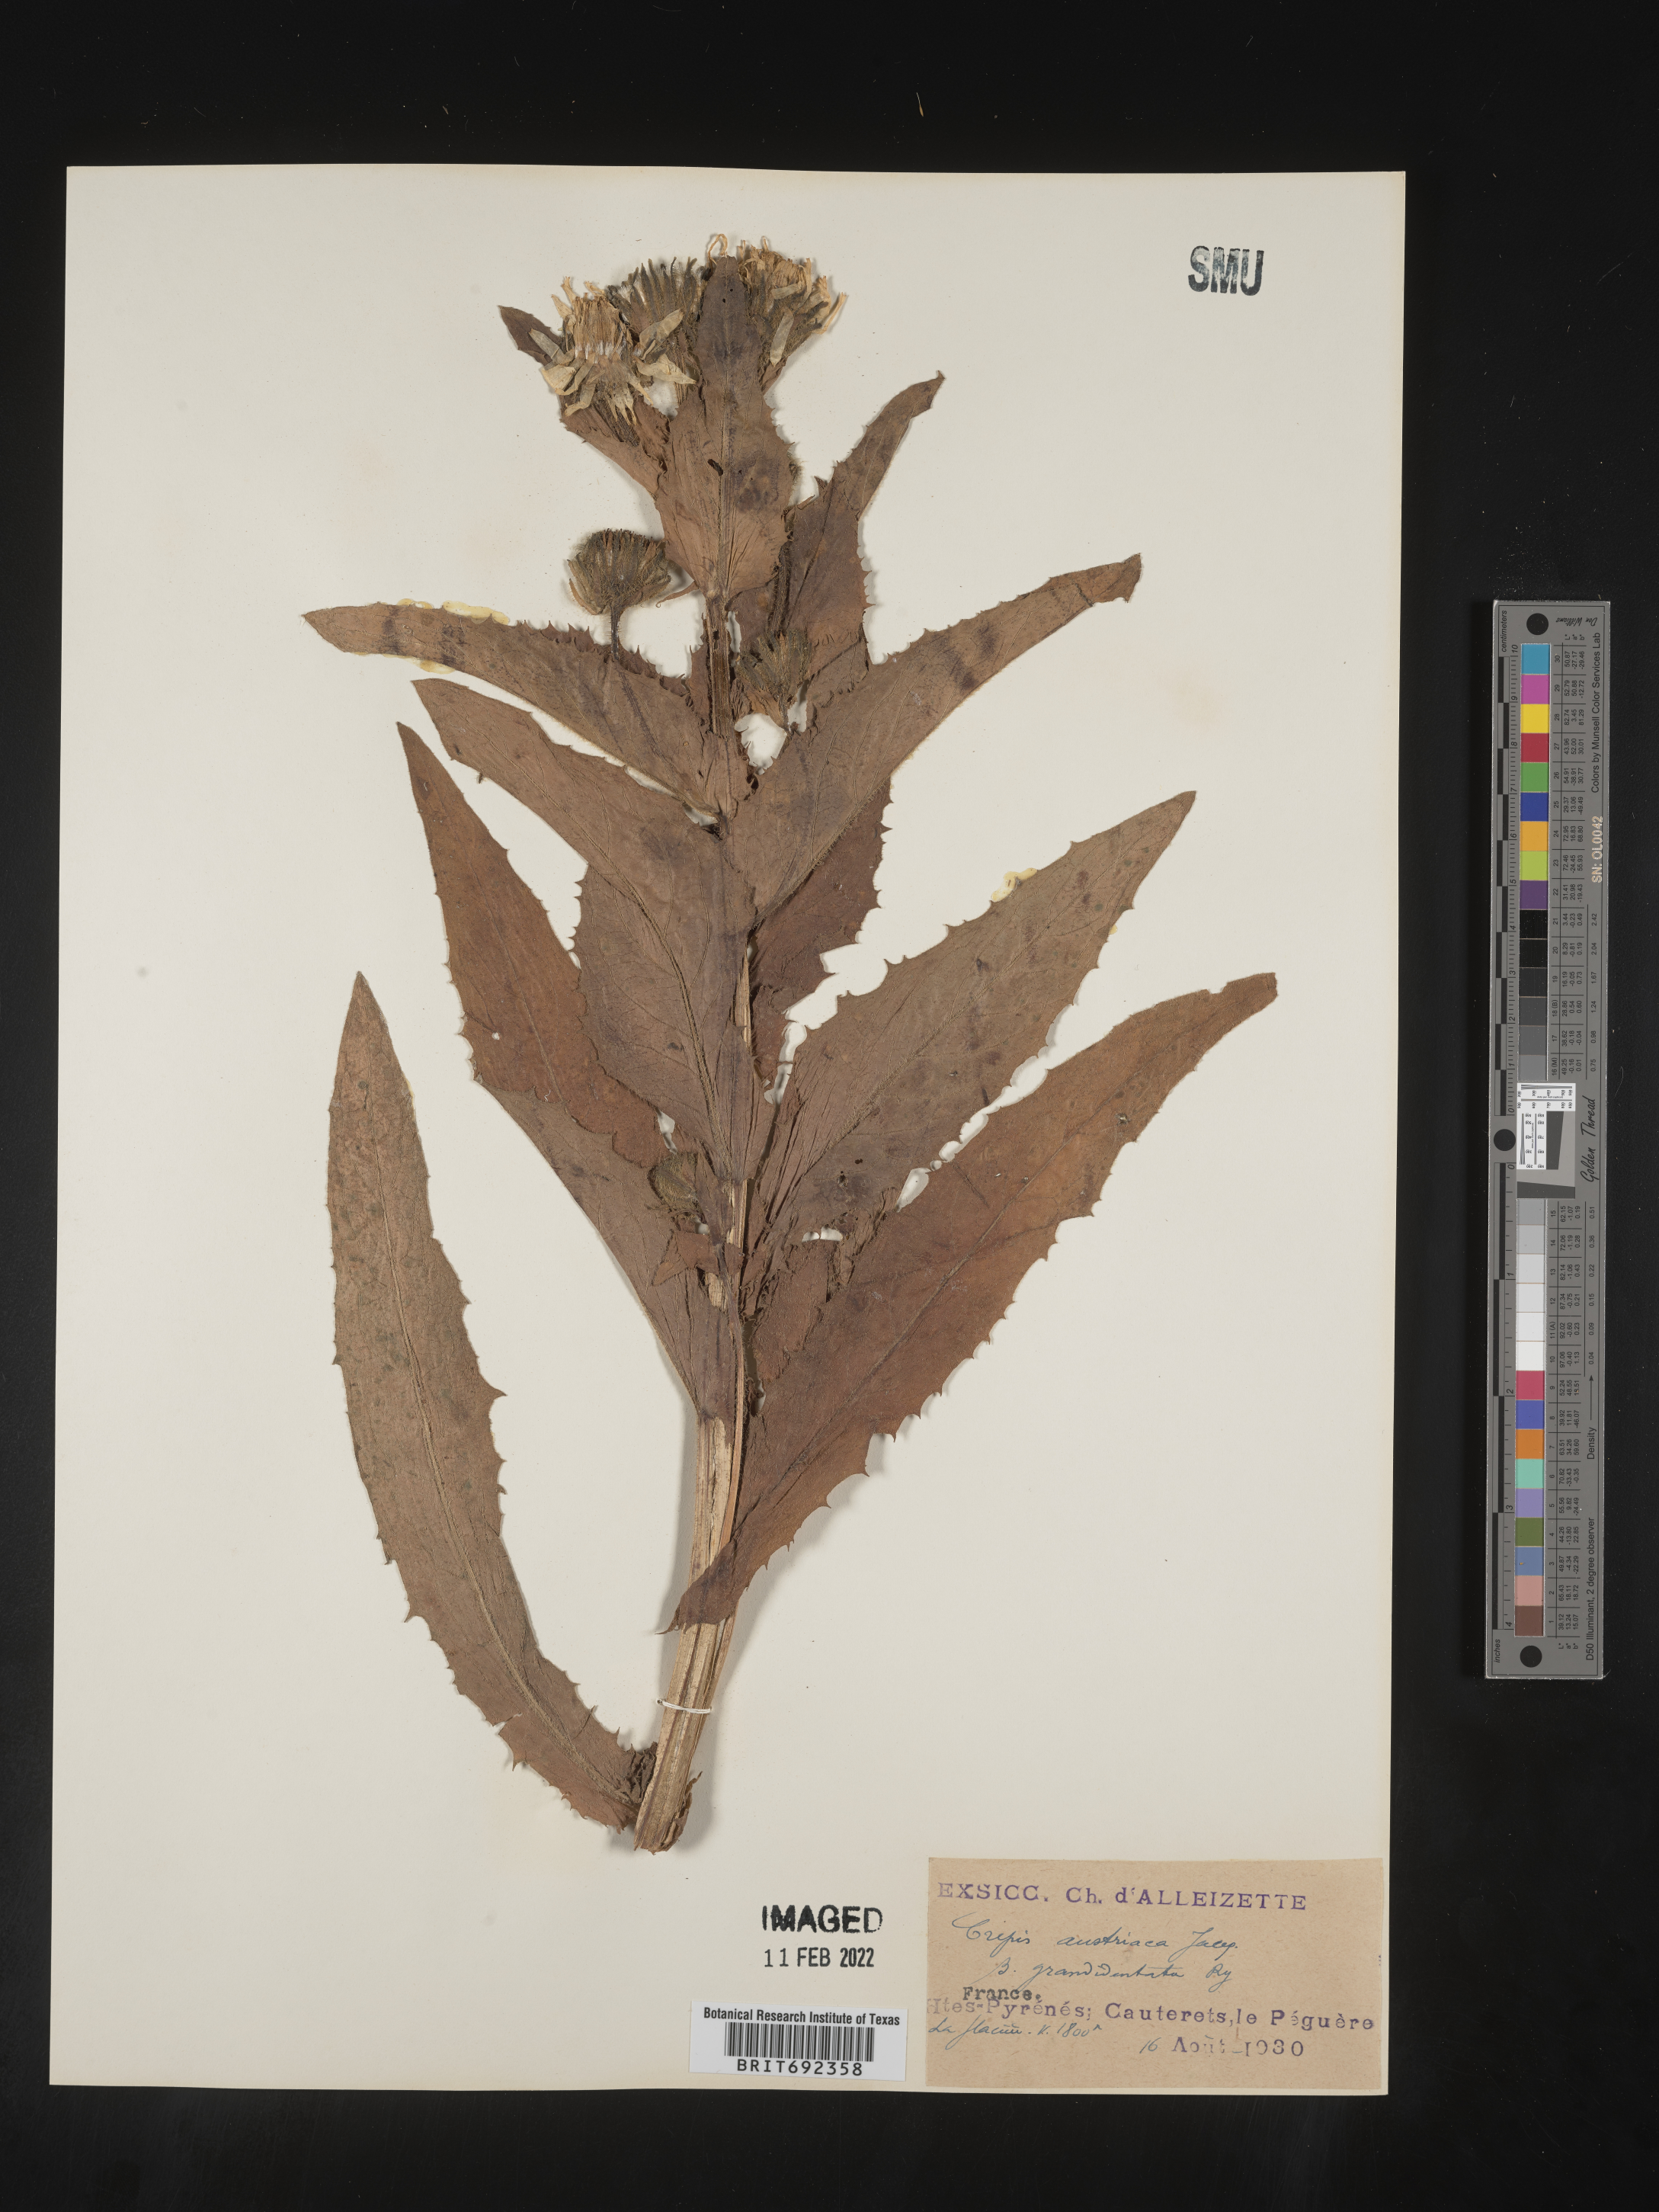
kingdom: Plantae
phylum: Tracheophyta
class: Magnoliopsida
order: Asterales
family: Asteraceae
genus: Crepis
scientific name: Crepis
